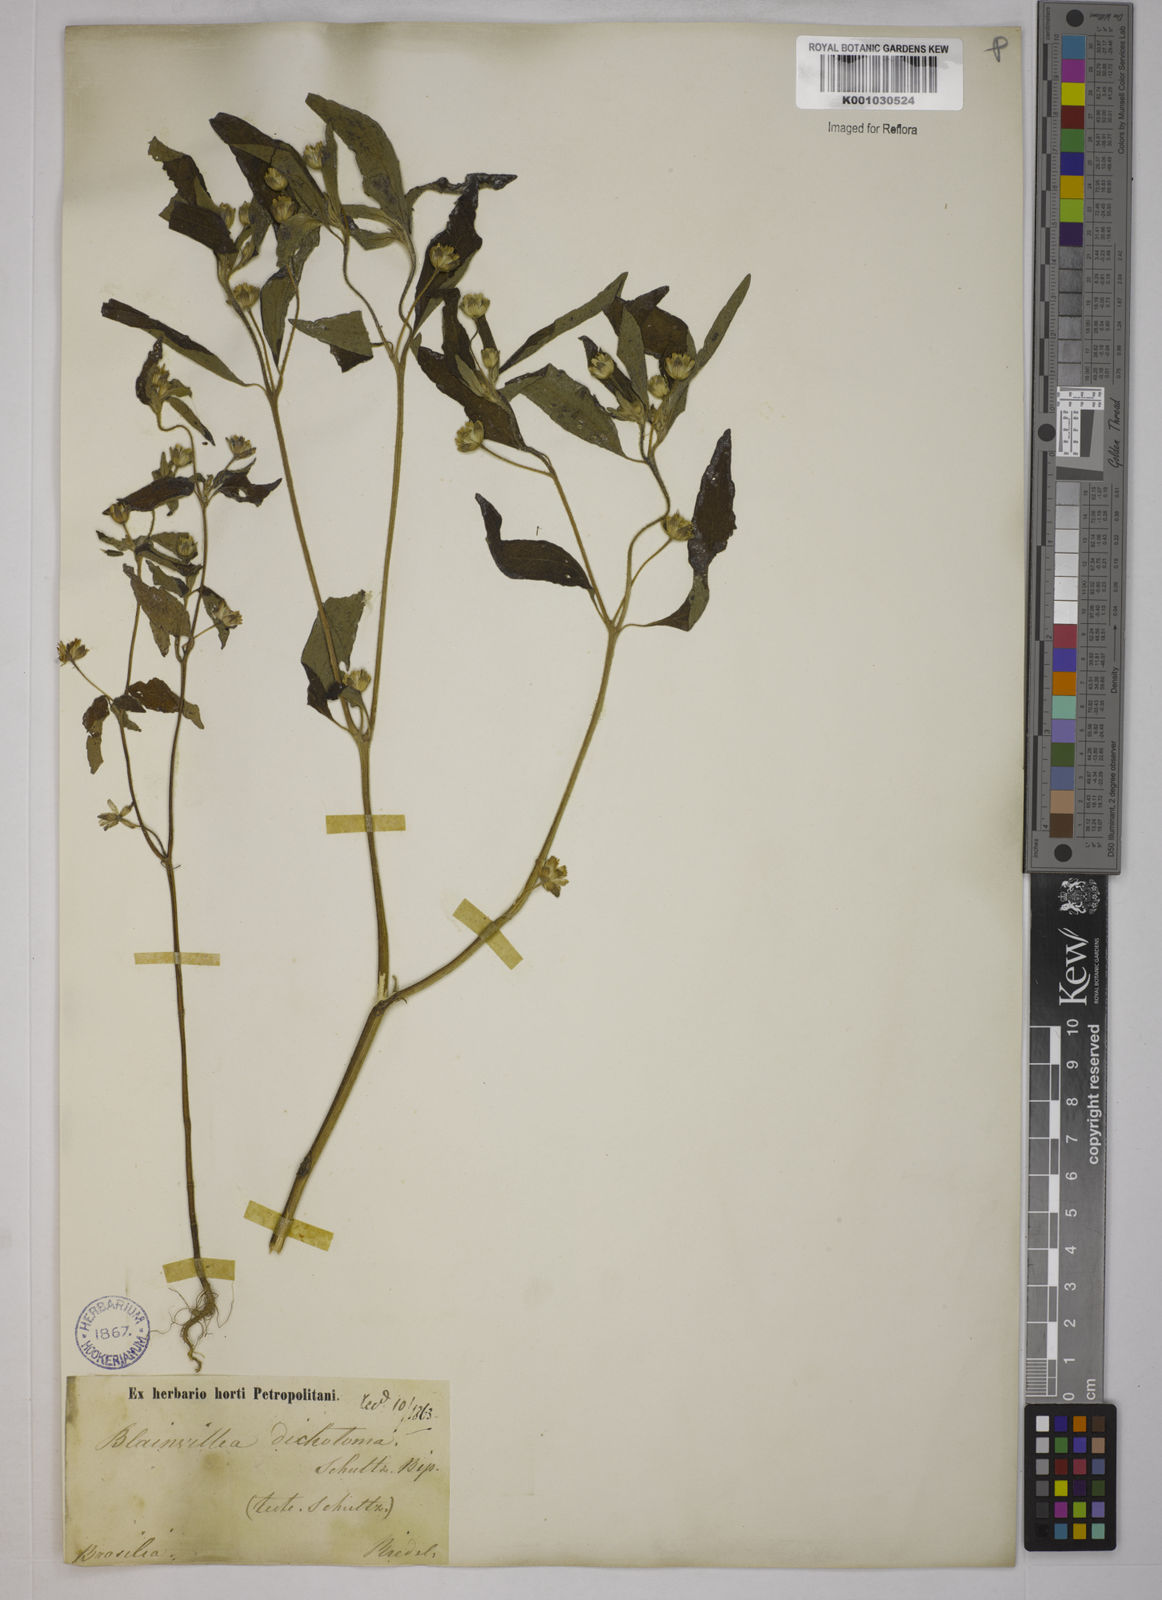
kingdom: Plantae
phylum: Tracheophyta
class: Magnoliopsida
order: Asterales
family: Asteraceae
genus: Blainvillea
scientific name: Blainvillea acmella
